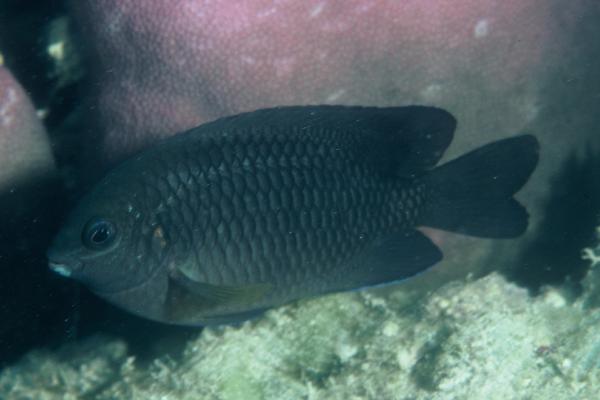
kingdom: Animalia
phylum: Chordata
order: Perciformes
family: Pomacentridae
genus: Chrysiptera
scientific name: Chrysiptera unimaculata
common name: Onespot demoiselle
